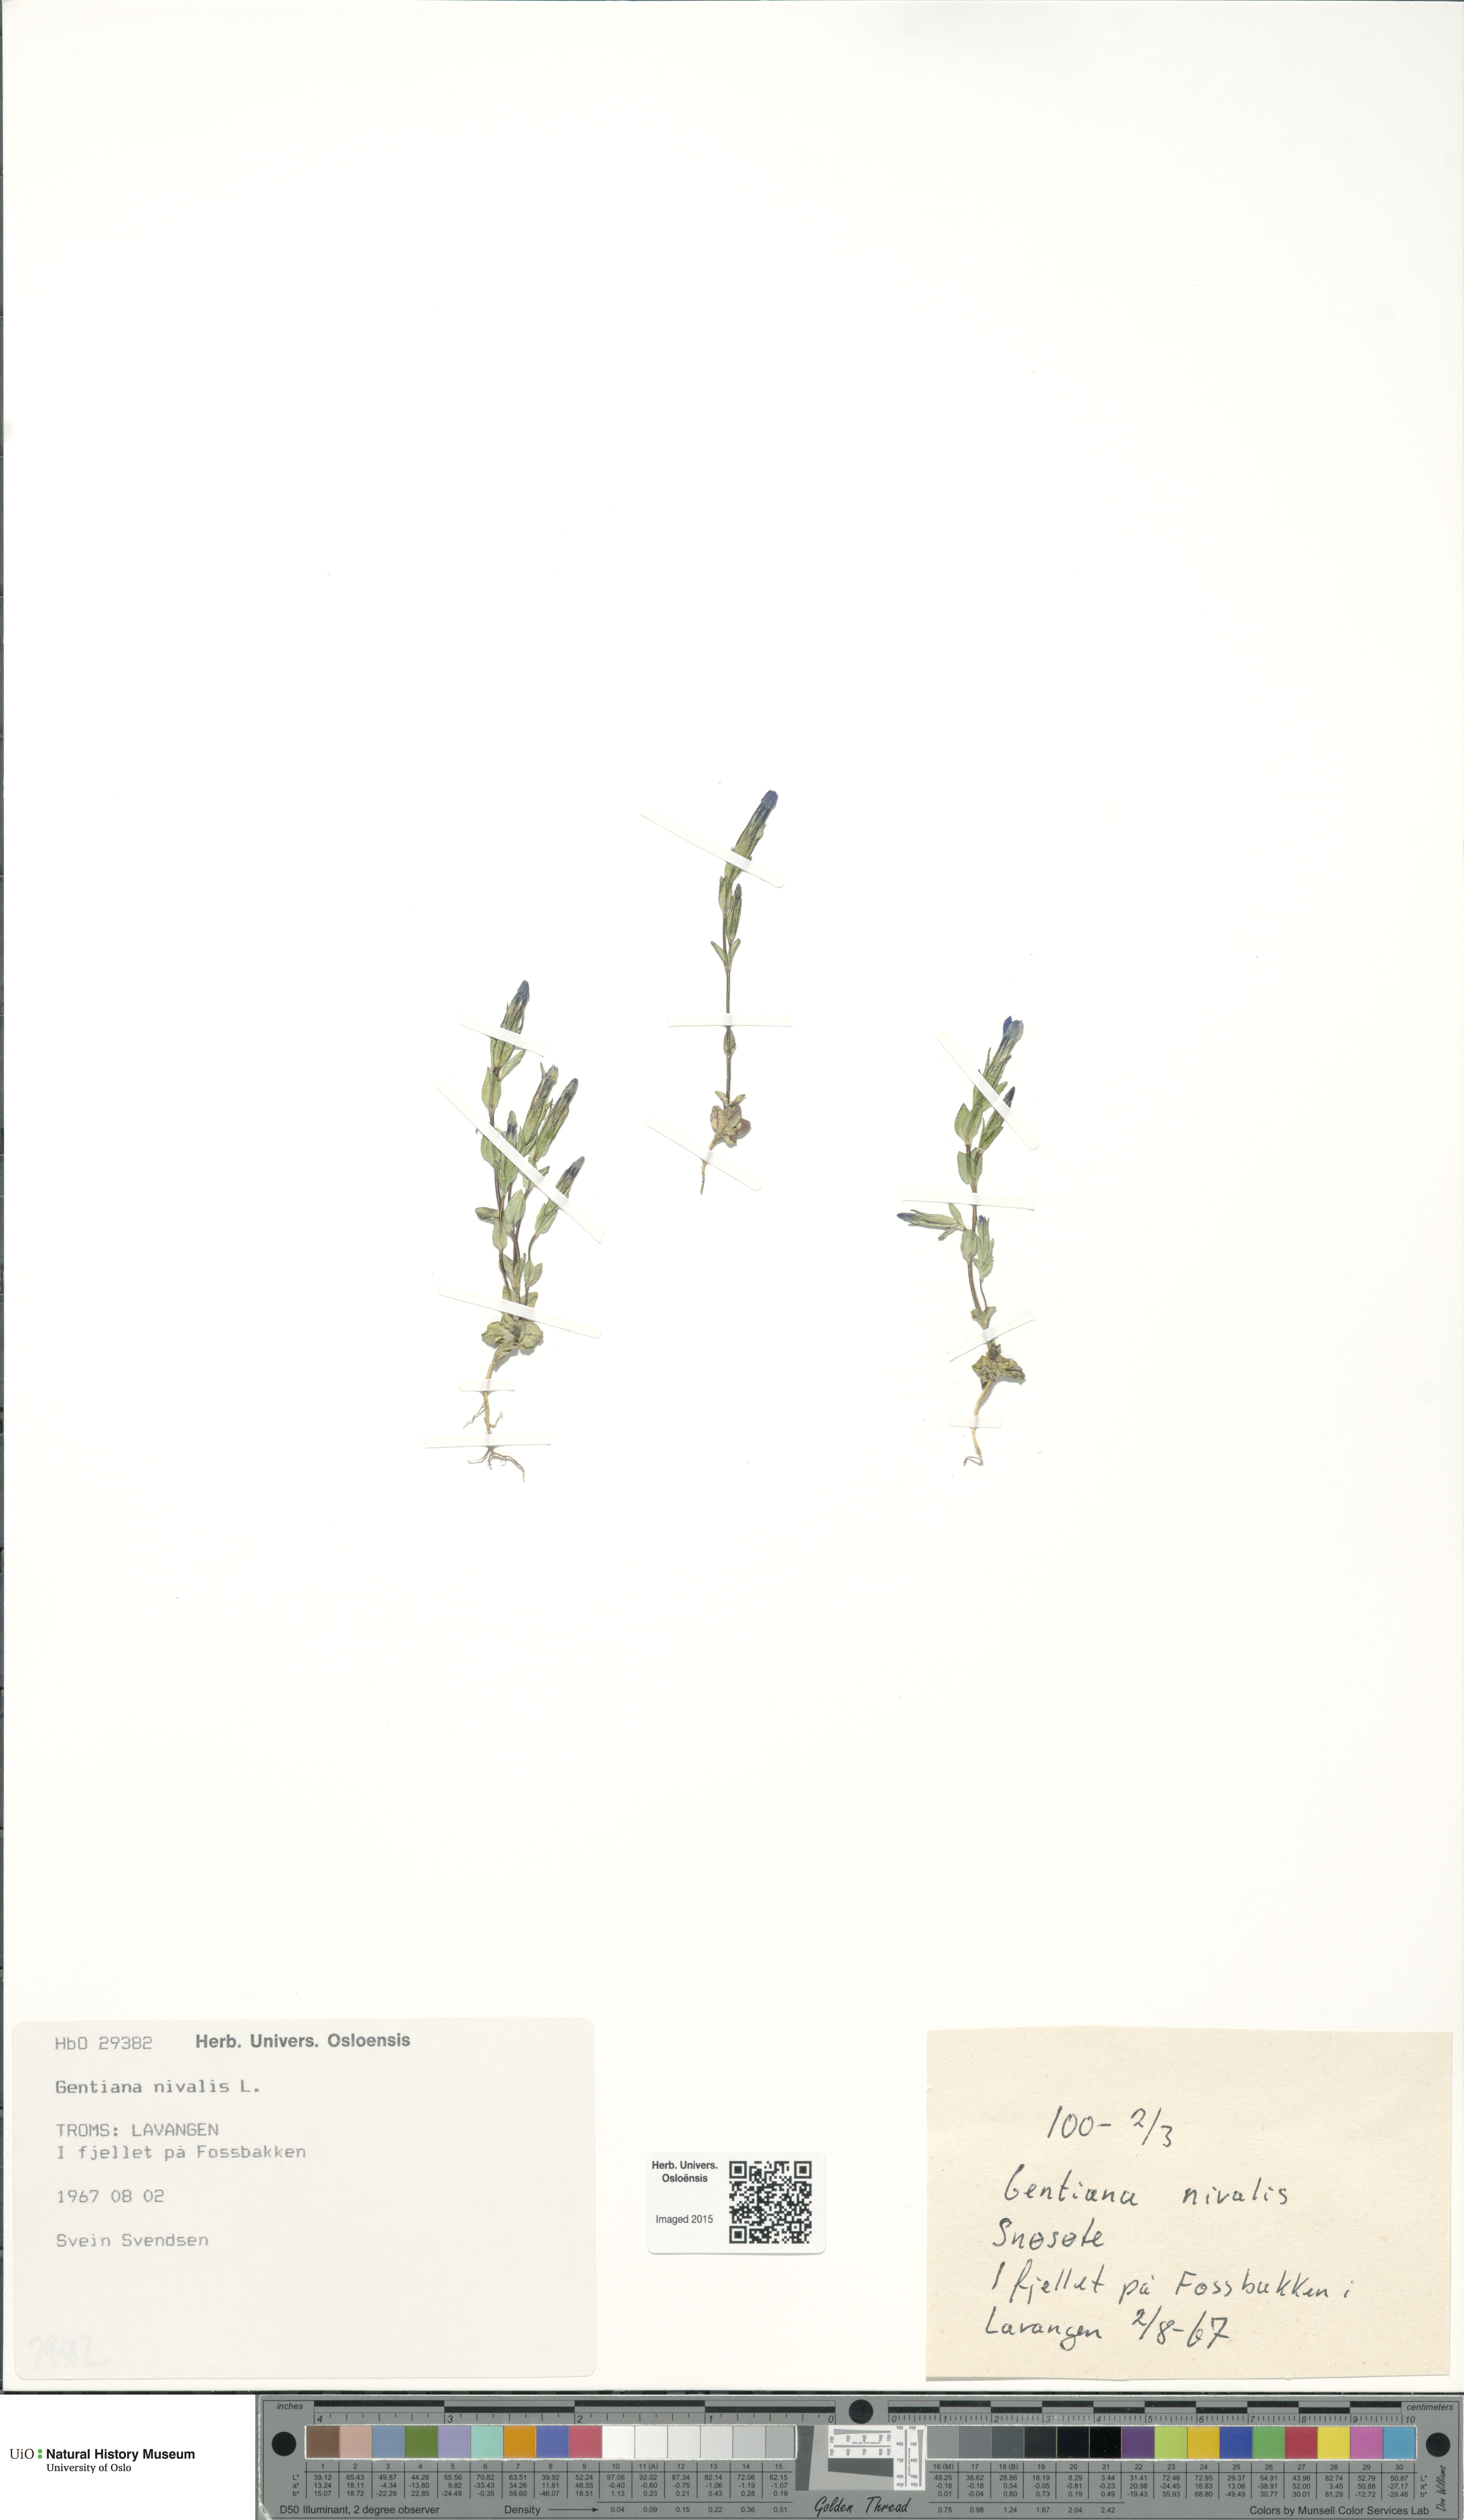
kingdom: Plantae
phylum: Tracheophyta
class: Magnoliopsida
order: Gentianales
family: Gentianaceae
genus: Gentiana
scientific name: Gentiana nivalis
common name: Alpine gentian
